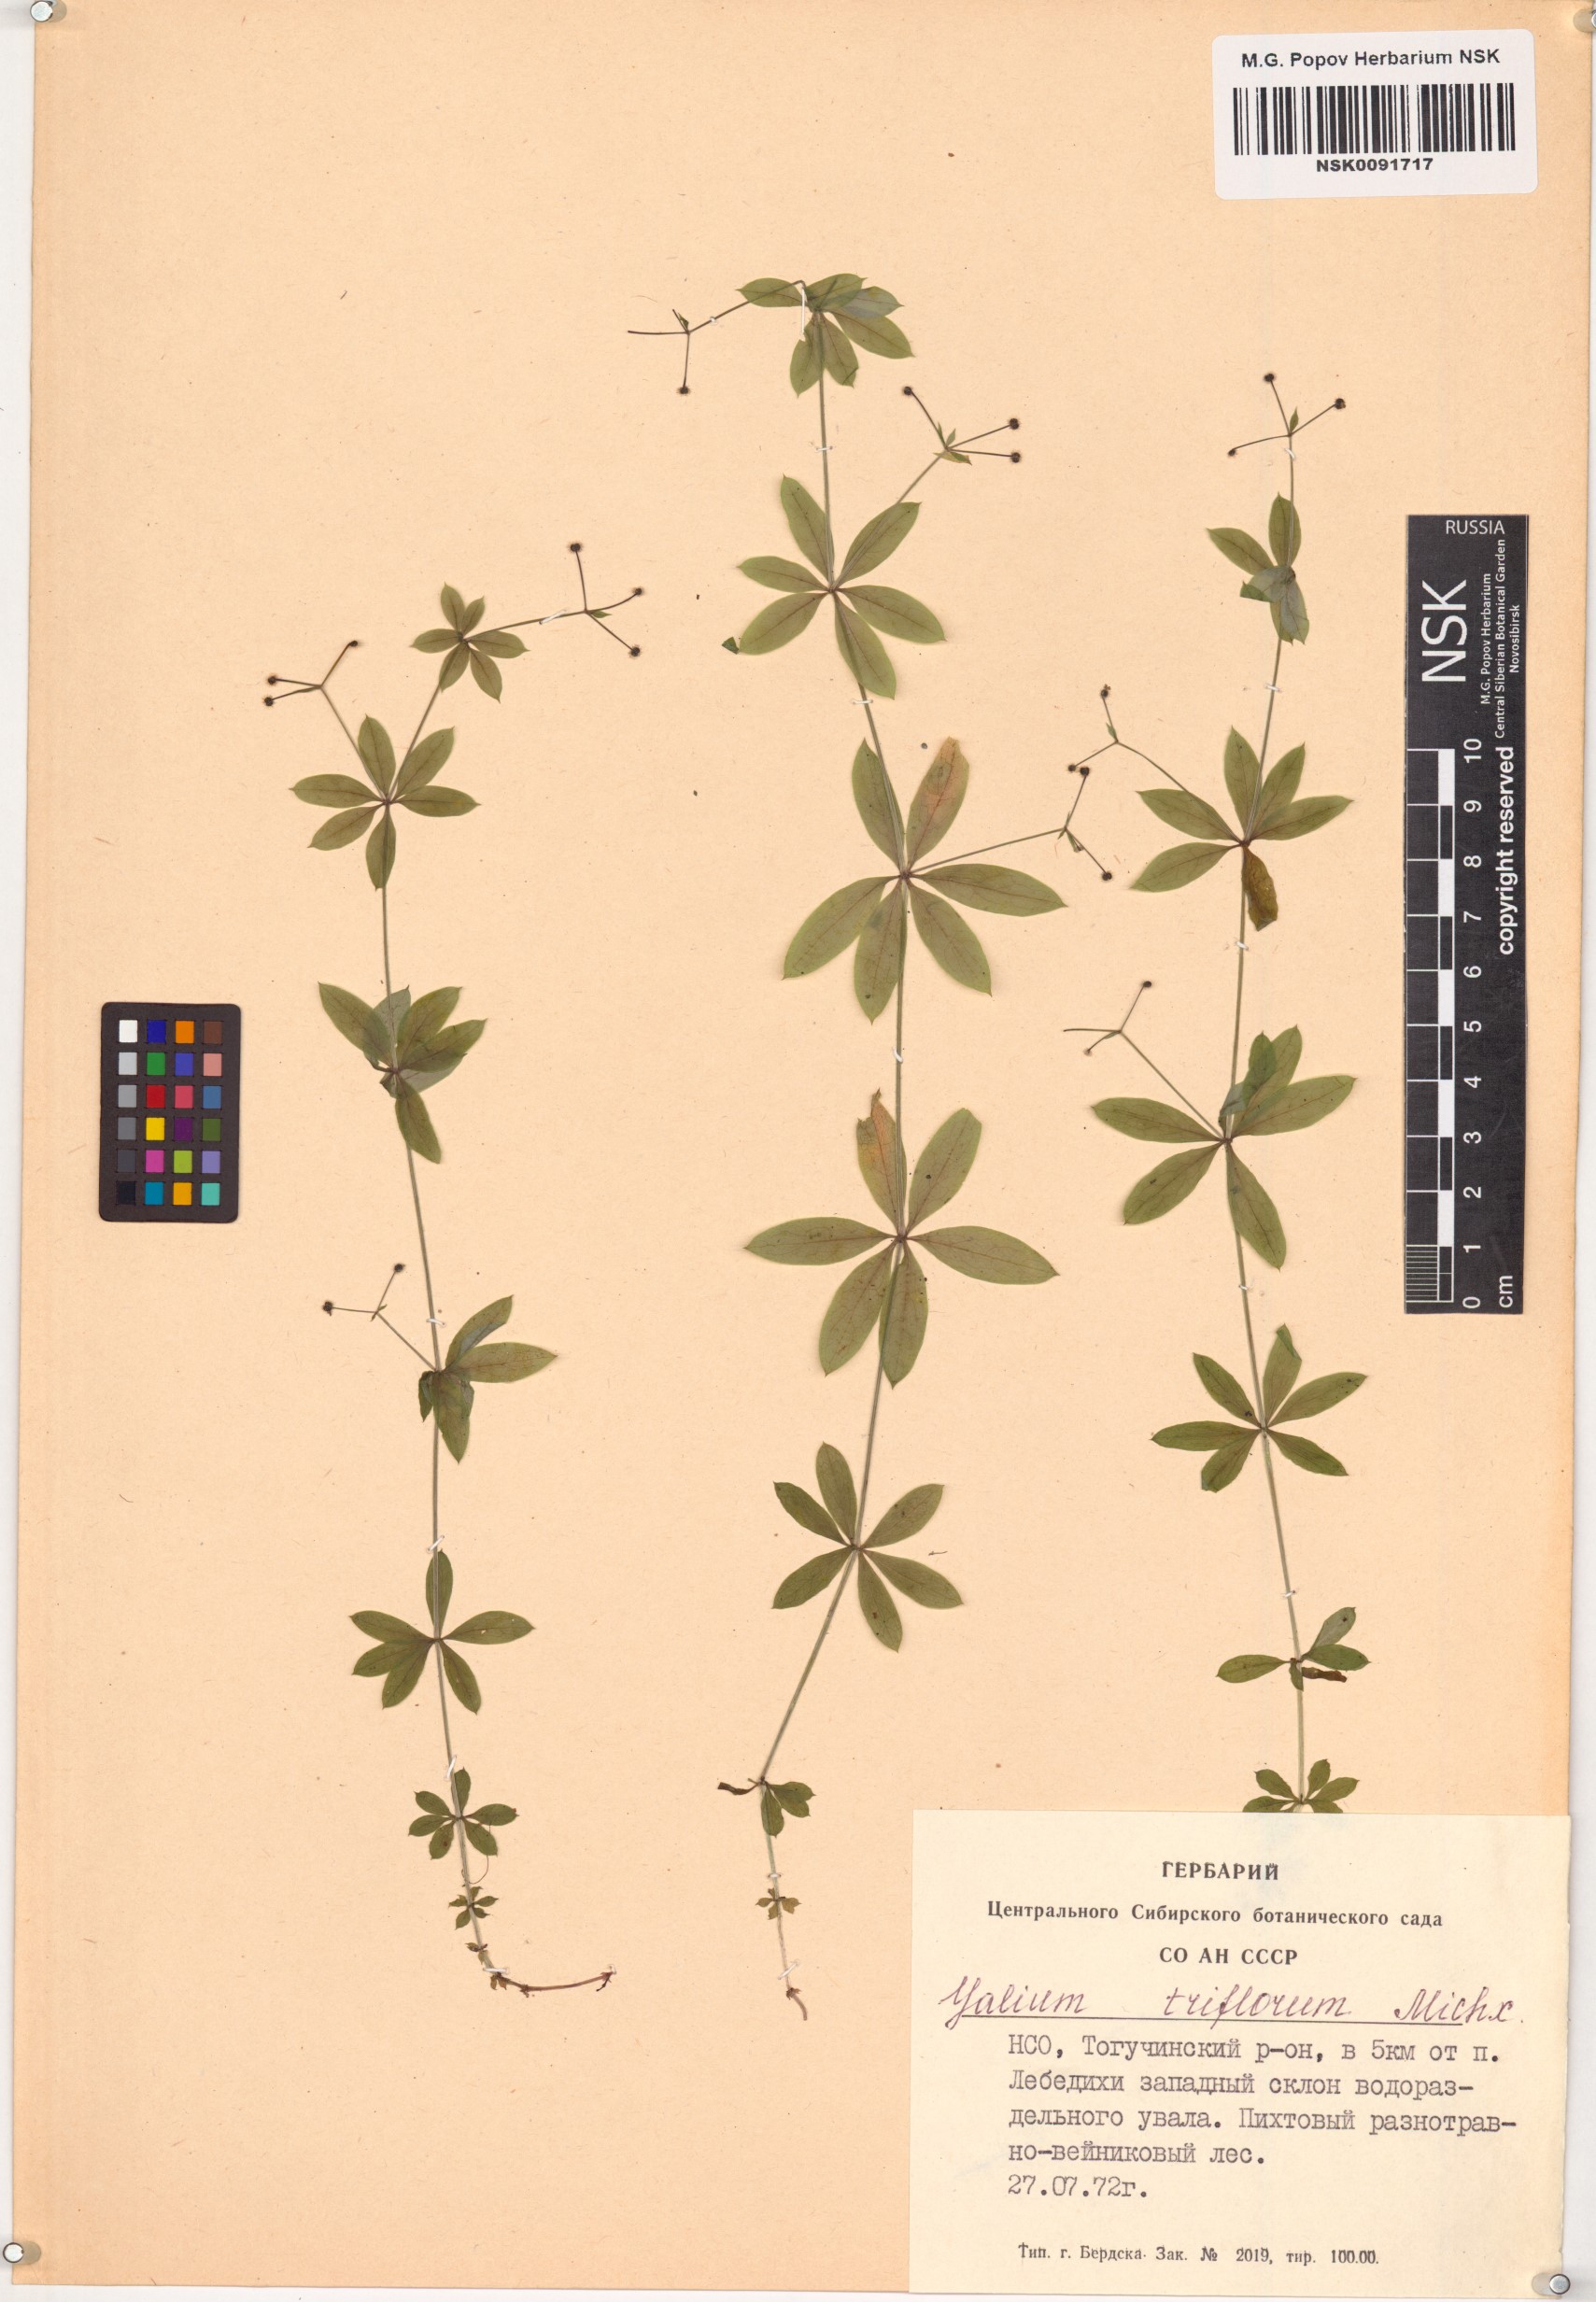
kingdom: Plantae
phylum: Tracheophyta
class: Magnoliopsida
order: Gentianales
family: Rubiaceae
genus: Galium
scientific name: Galium triflorum
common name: Fragrant bedstraw
